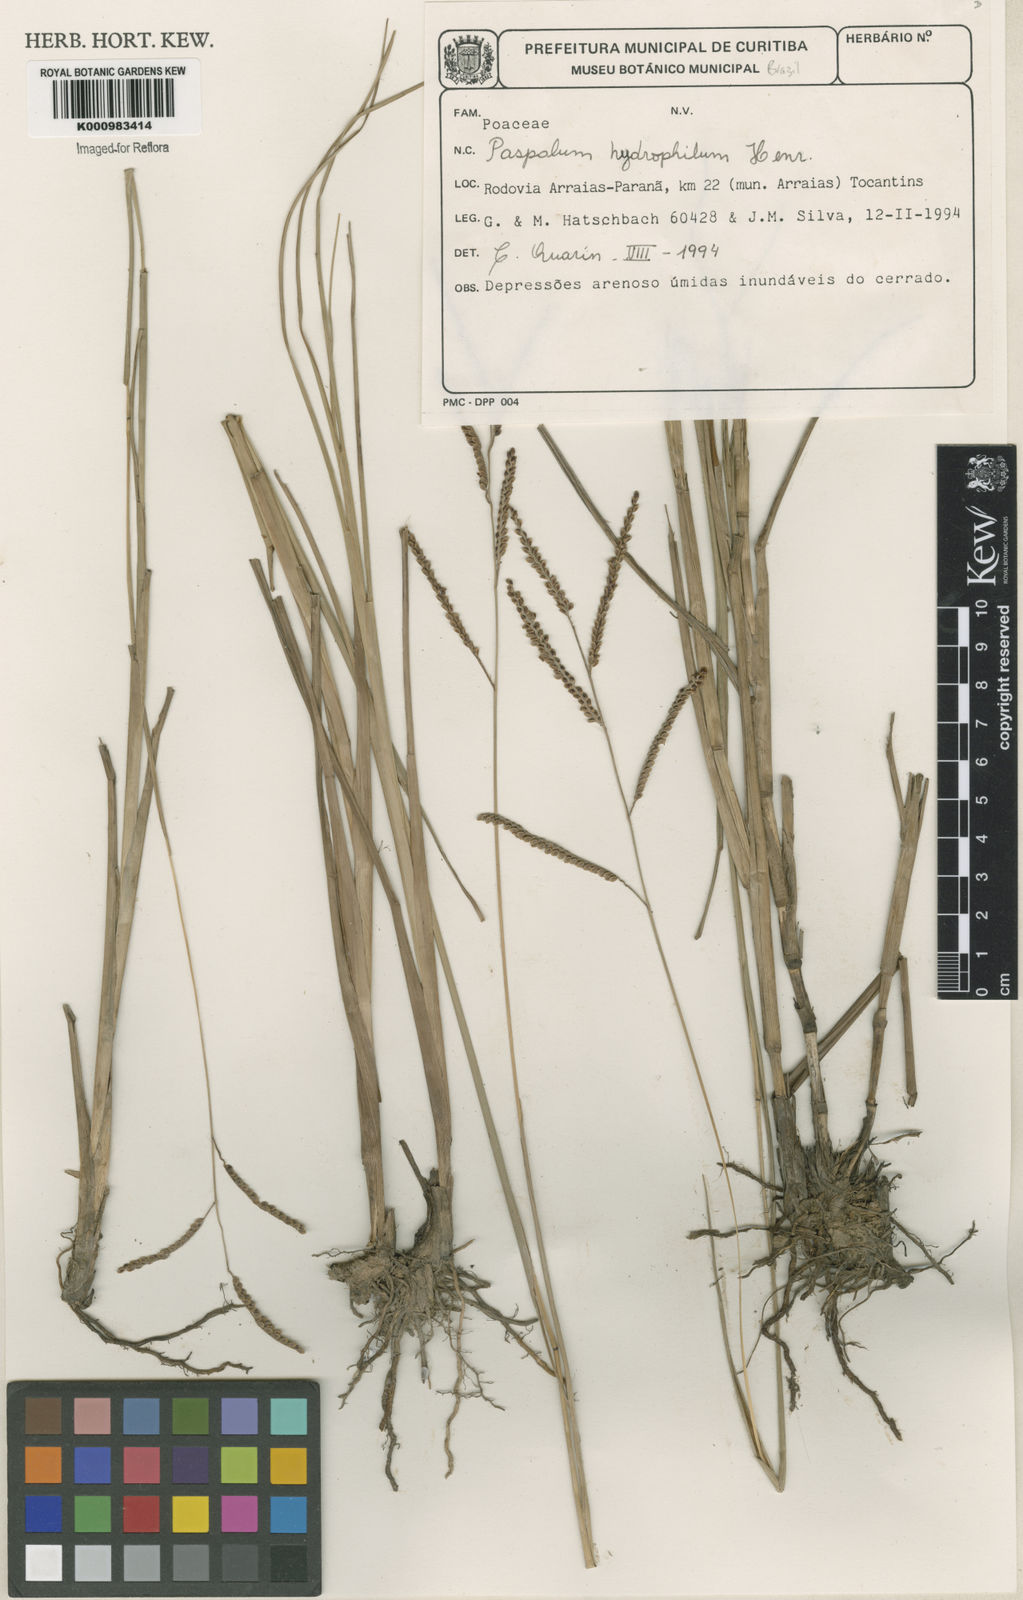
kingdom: Plantae
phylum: Tracheophyta
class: Liliopsida
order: Poales
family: Poaceae
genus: Paspalum
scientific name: Paspalum plicatulum
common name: Top paspalum
